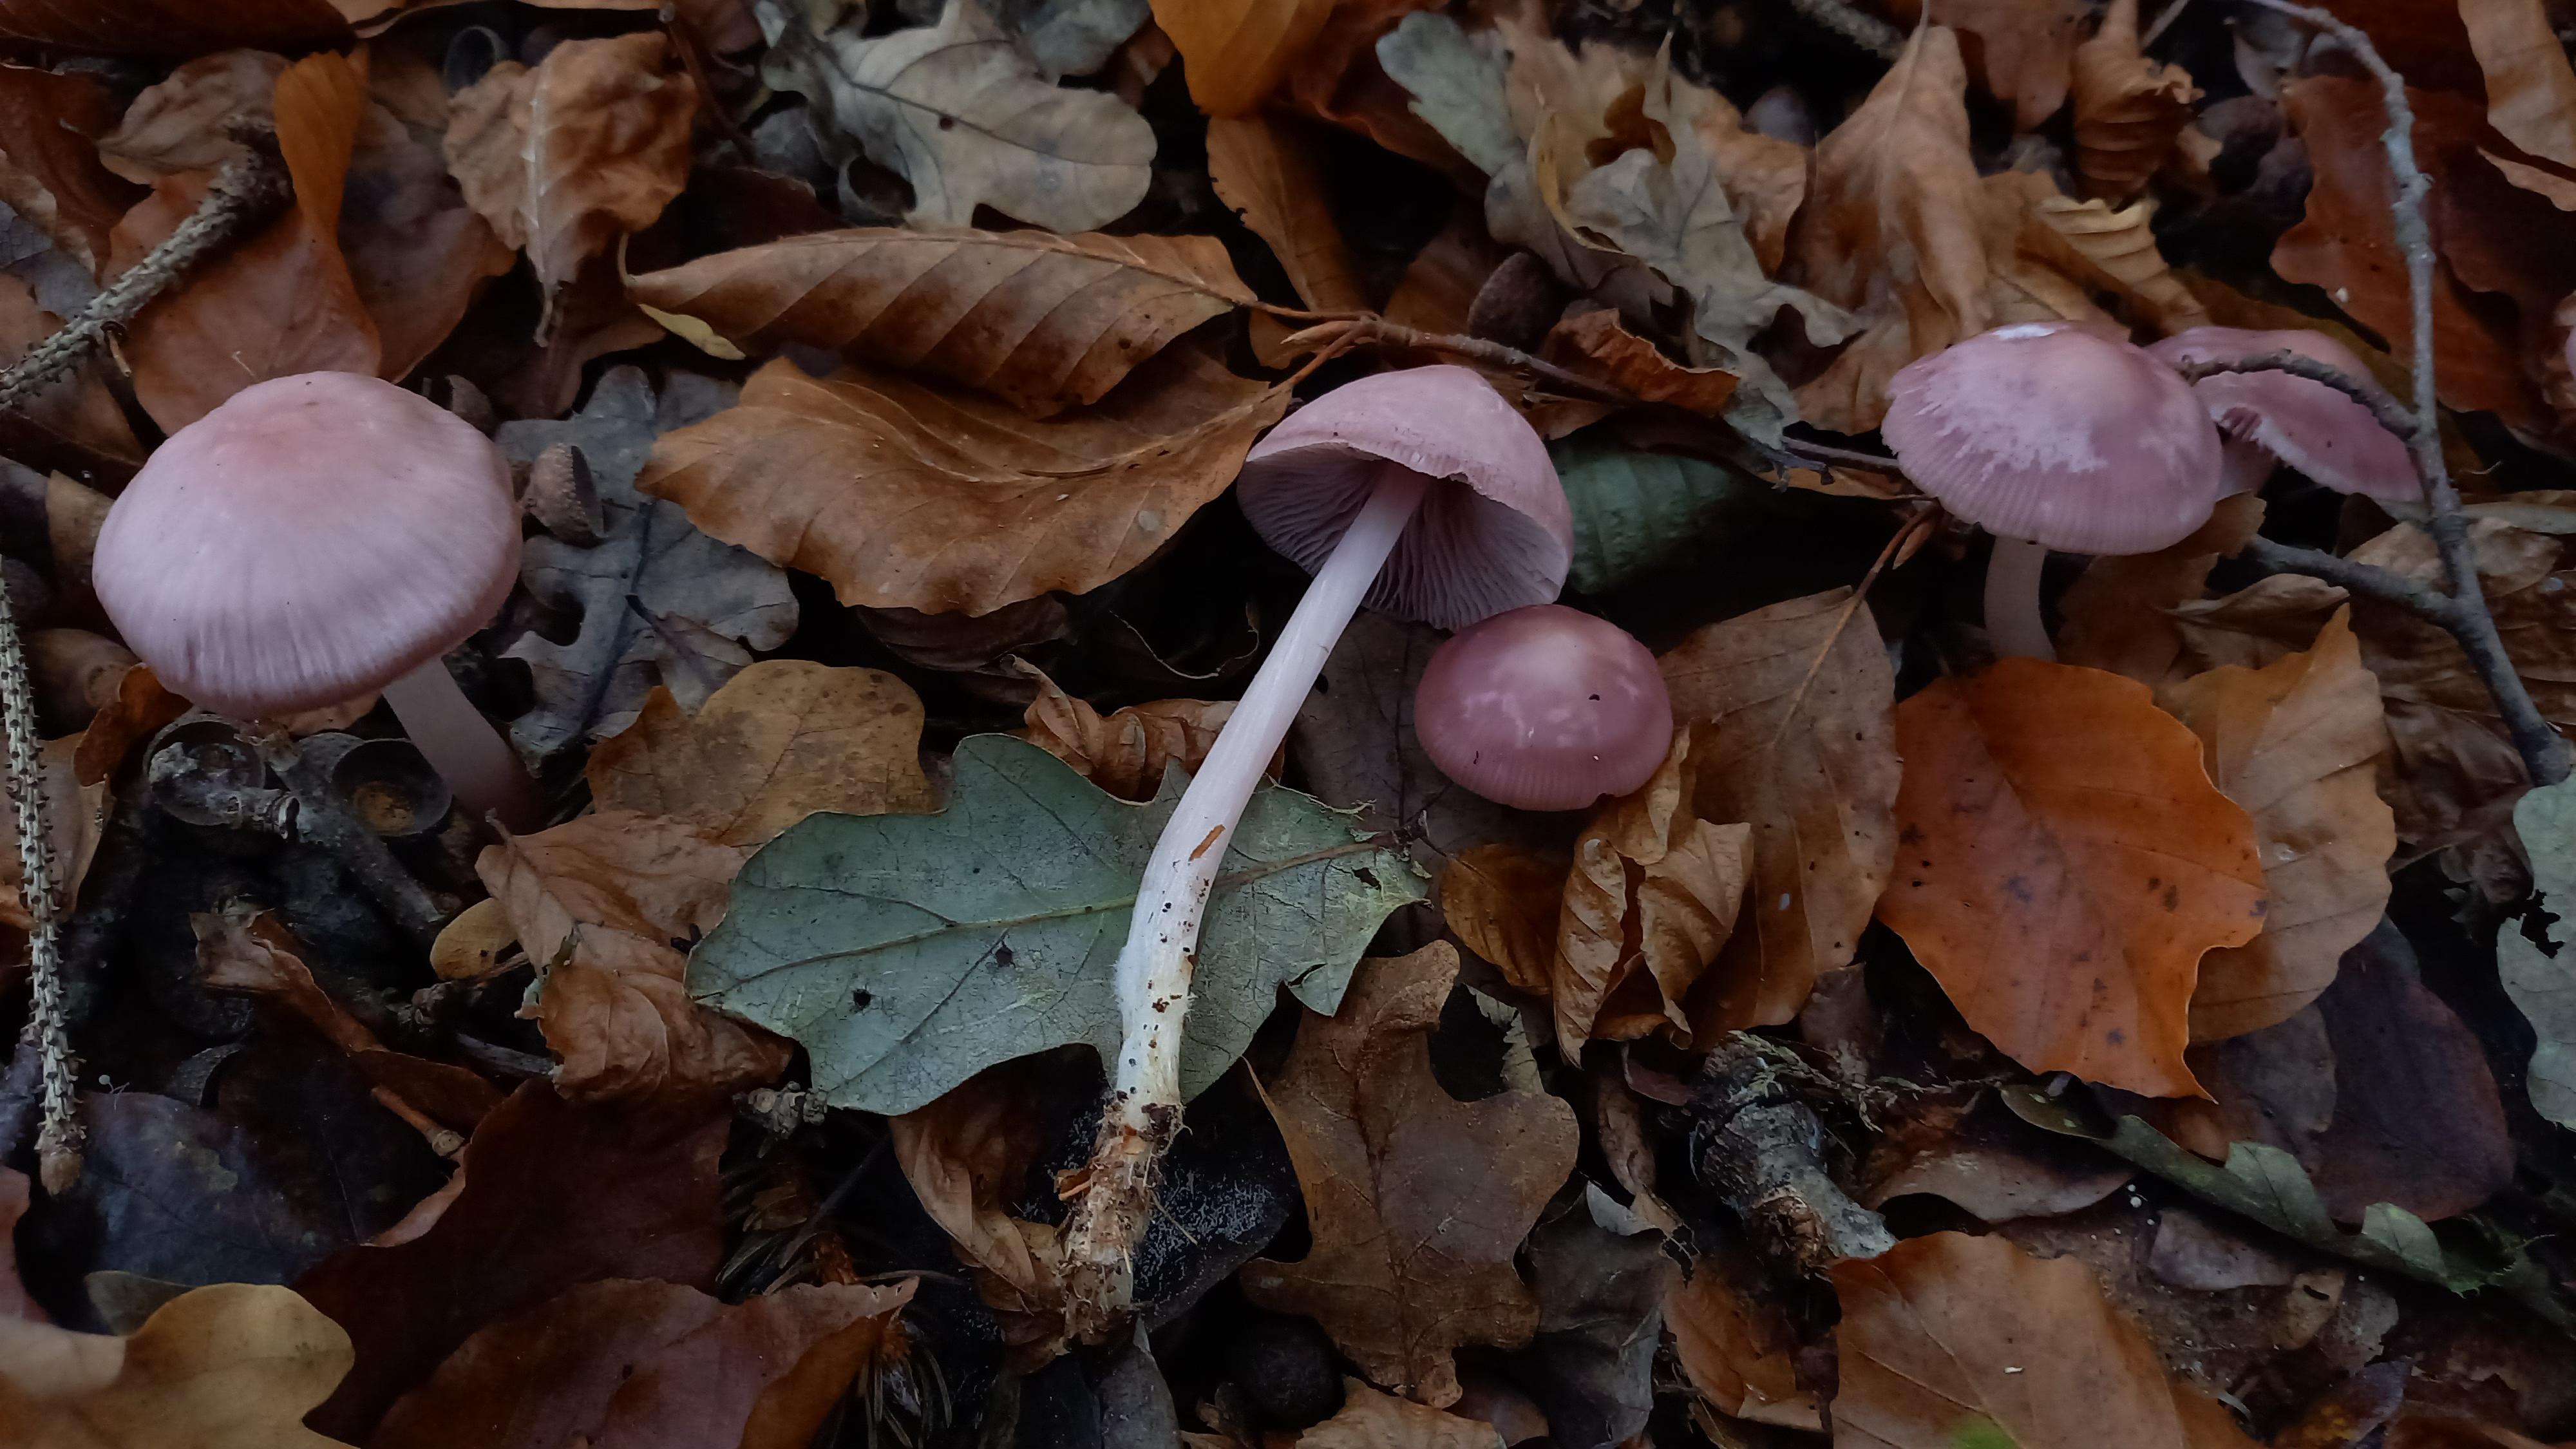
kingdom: Fungi
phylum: Basidiomycota
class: Agaricomycetes
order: Agaricales
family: Mycenaceae
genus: Mycena
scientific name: Mycena rosea
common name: rosa huesvamp
